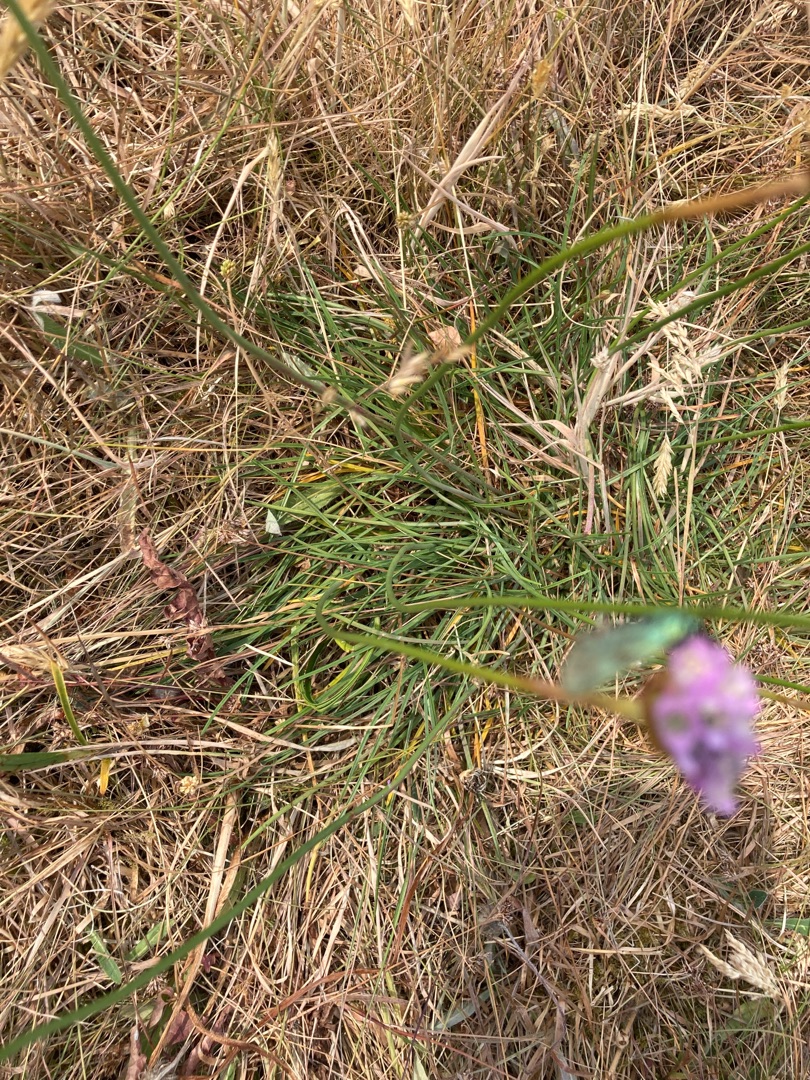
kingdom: Animalia
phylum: Arthropoda
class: Insecta
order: Lepidoptera
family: Zygaenidae
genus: Adscita
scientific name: Adscita statices
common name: Metalvinge
